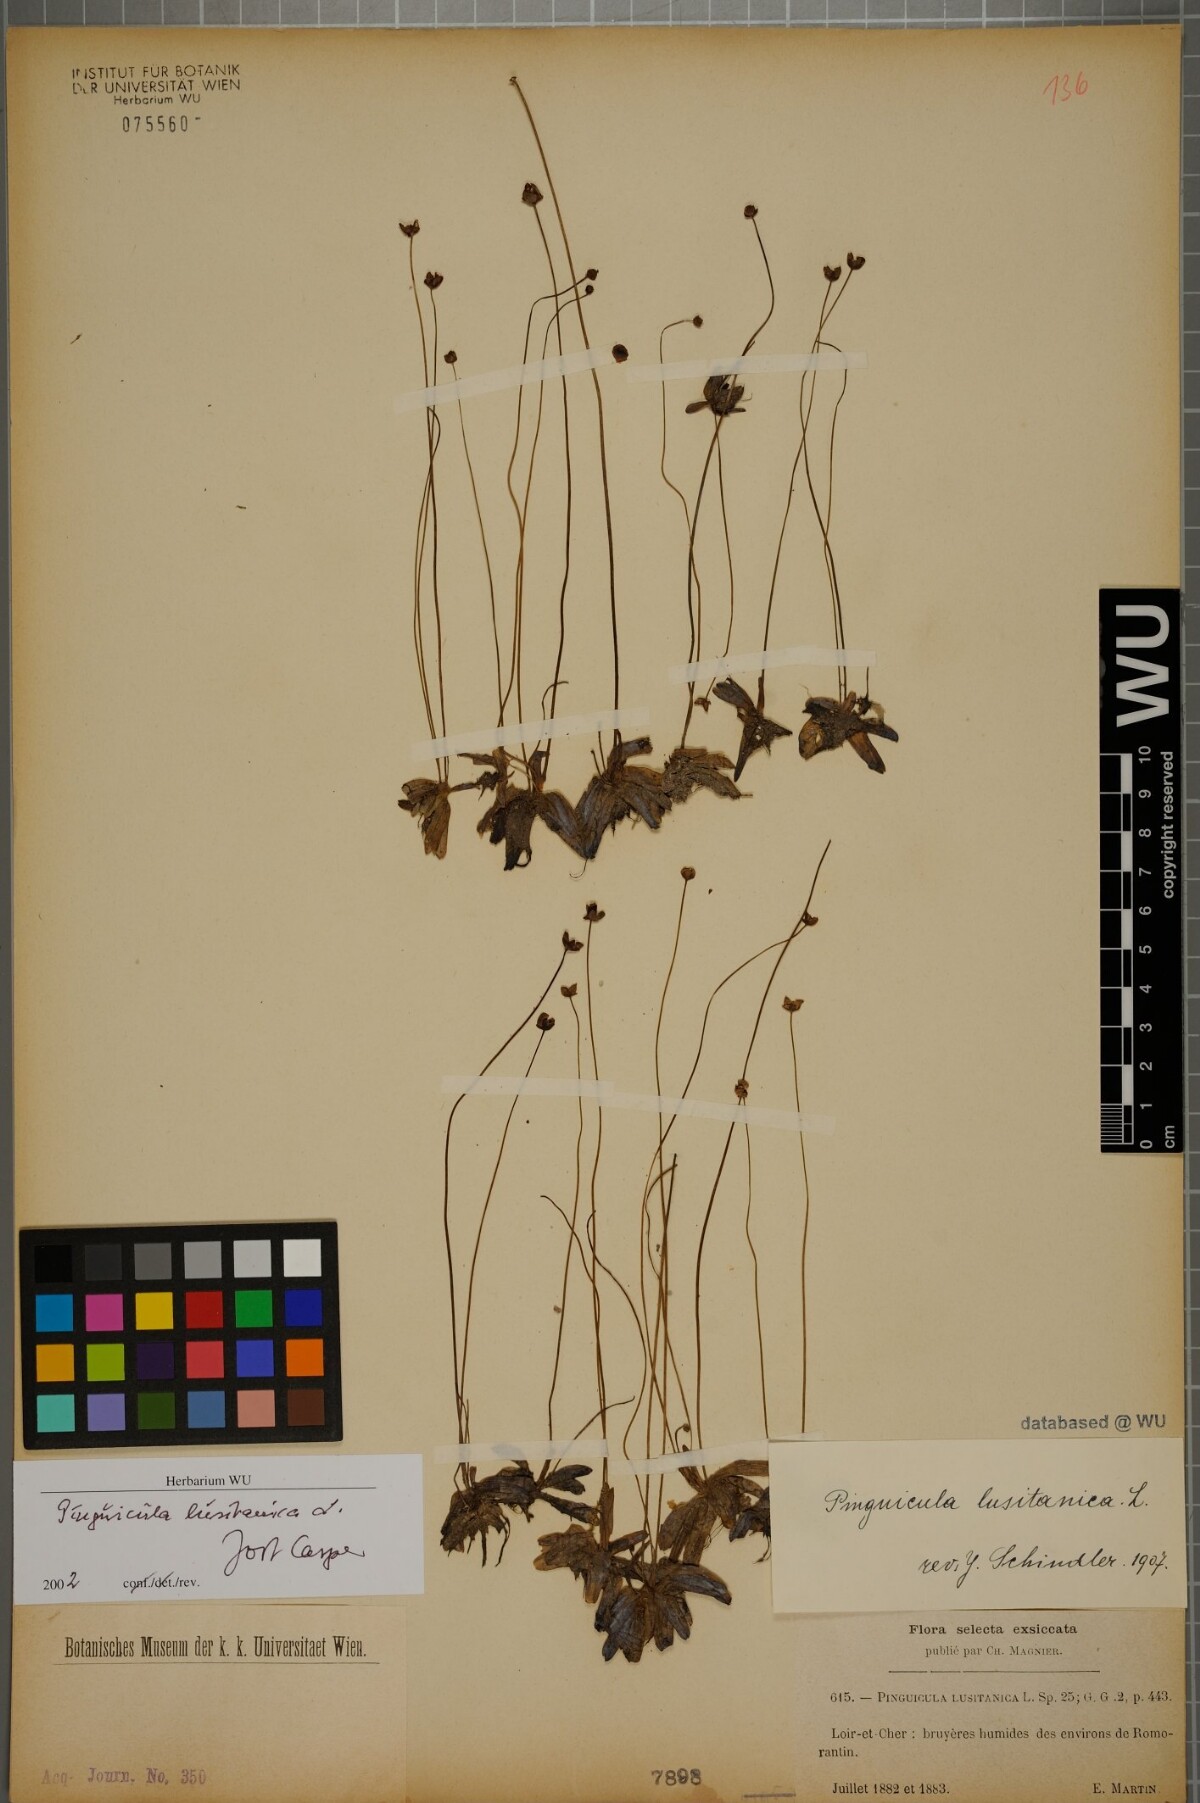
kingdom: Plantae
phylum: Tracheophyta
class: Magnoliopsida
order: Lamiales
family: Lentibulariaceae
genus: Pinguicula
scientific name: Pinguicula lusitanica
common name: Pale butterwort
